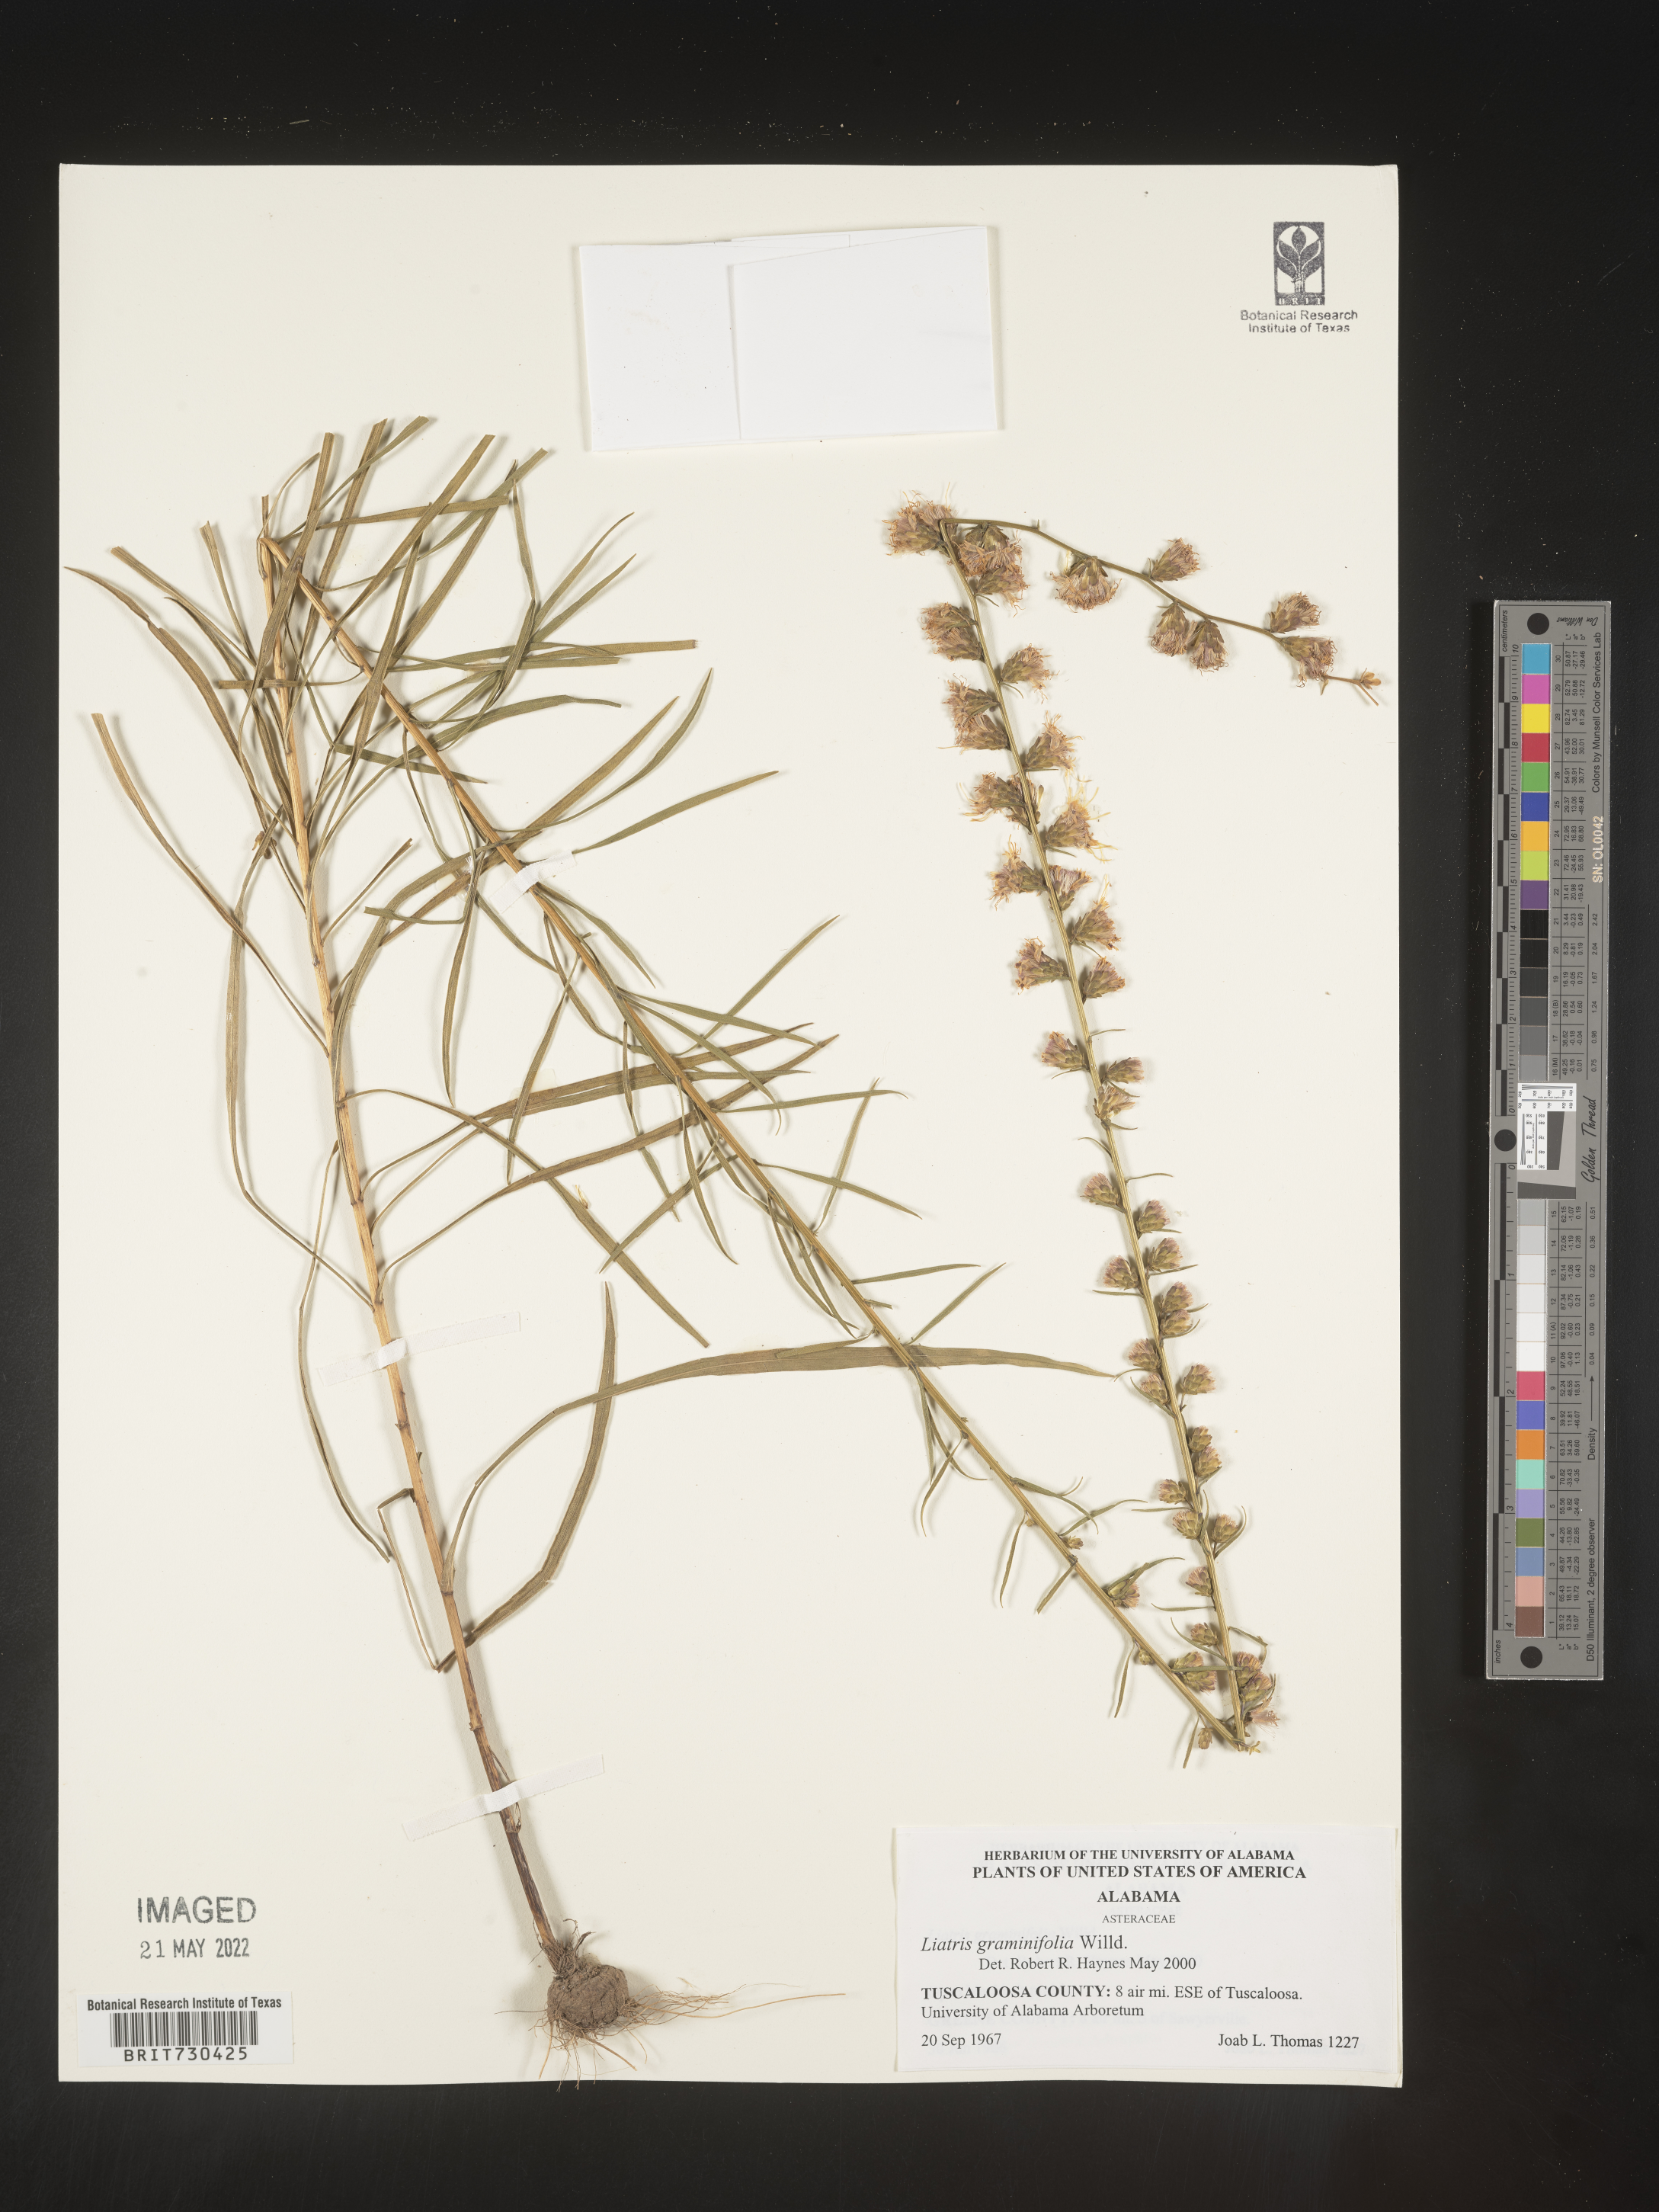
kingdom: Plantae
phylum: Tracheophyta
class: Magnoliopsida
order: Asterales
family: Asteraceae
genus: Liatris
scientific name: Liatris elegantula
